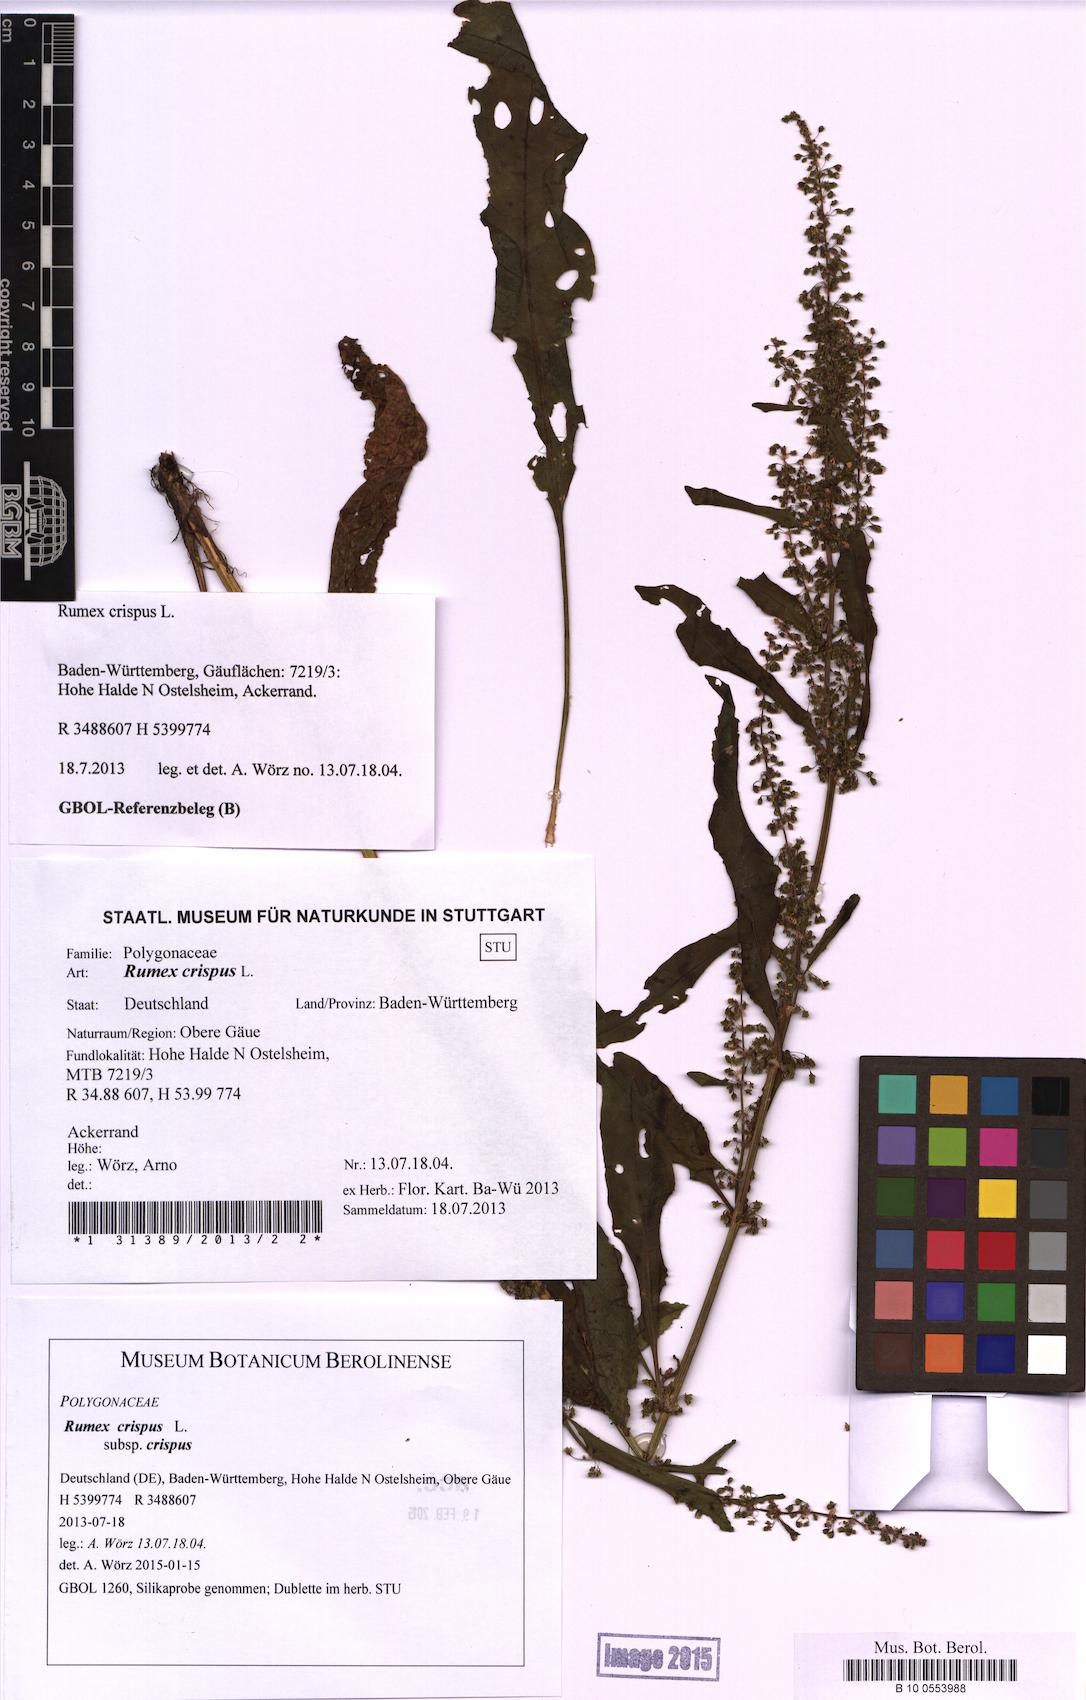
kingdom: Plantae
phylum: Tracheophyta
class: Magnoliopsida
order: Caryophyllales
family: Polygonaceae
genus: Rumex
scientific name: Rumex crispus
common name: Curled dock
